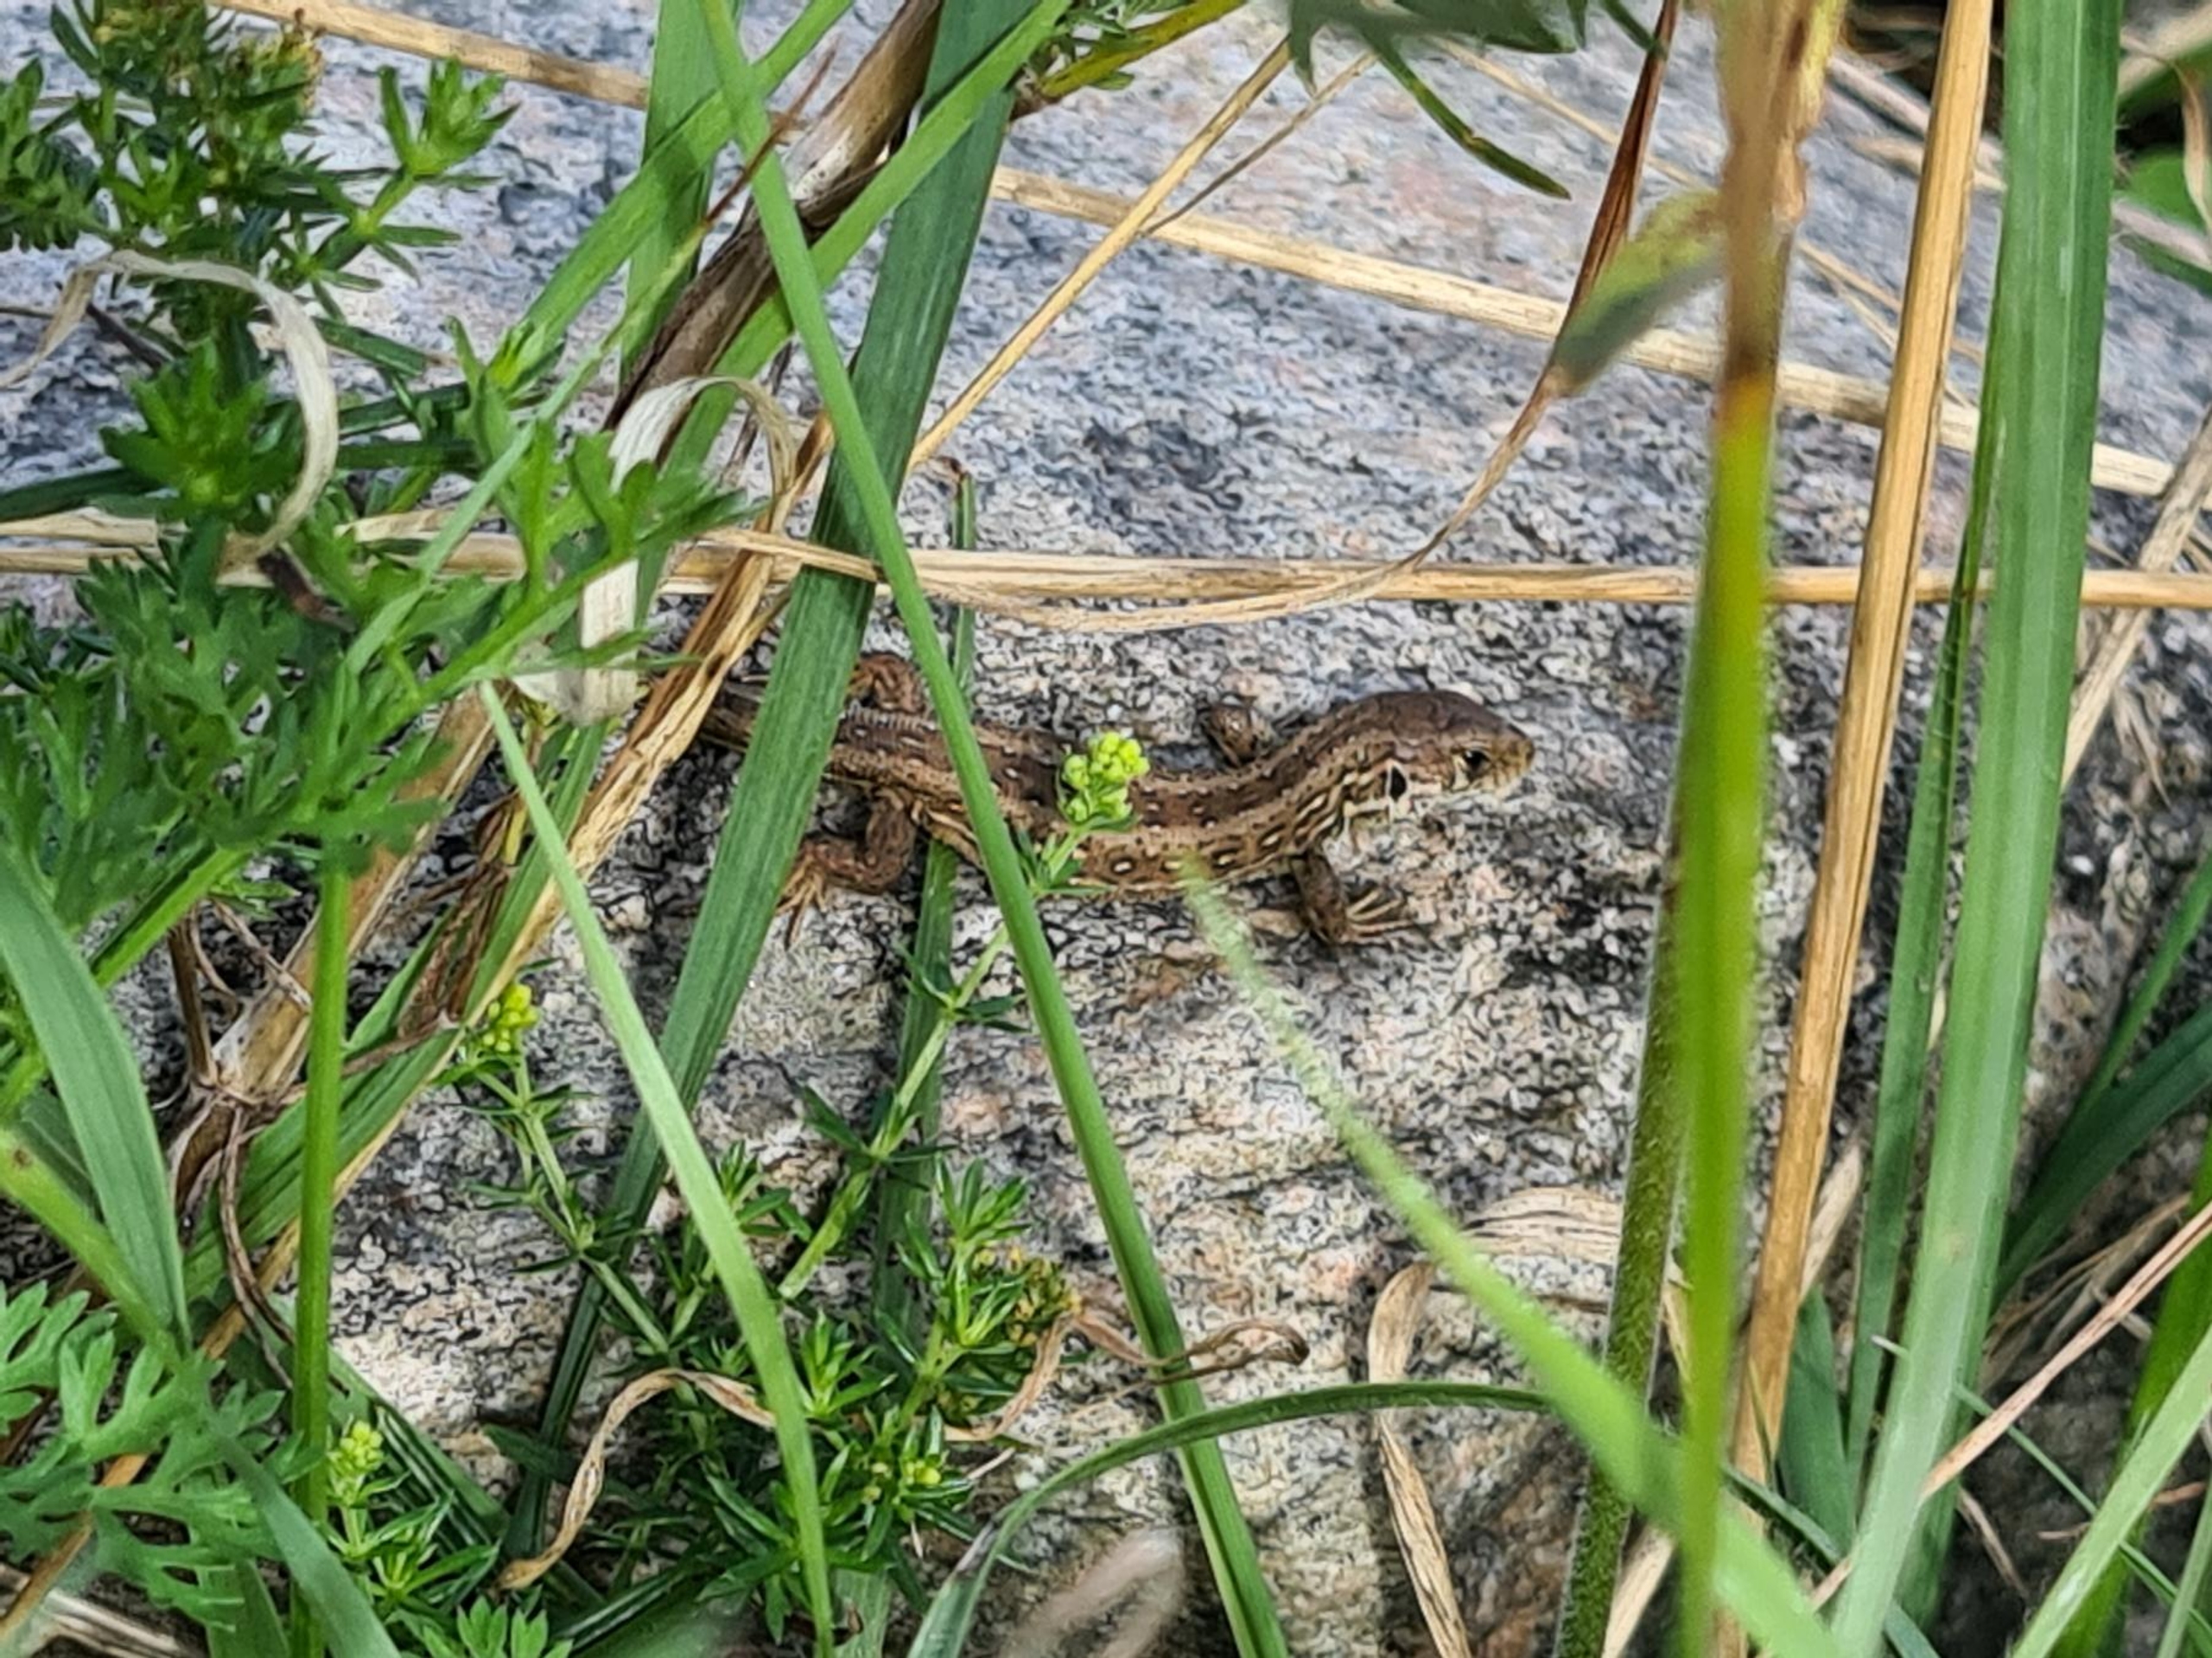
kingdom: Animalia
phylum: Chordata
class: Squamata
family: Lacertidae
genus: Lacerta
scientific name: Lacerta agilis
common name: Markfirben
